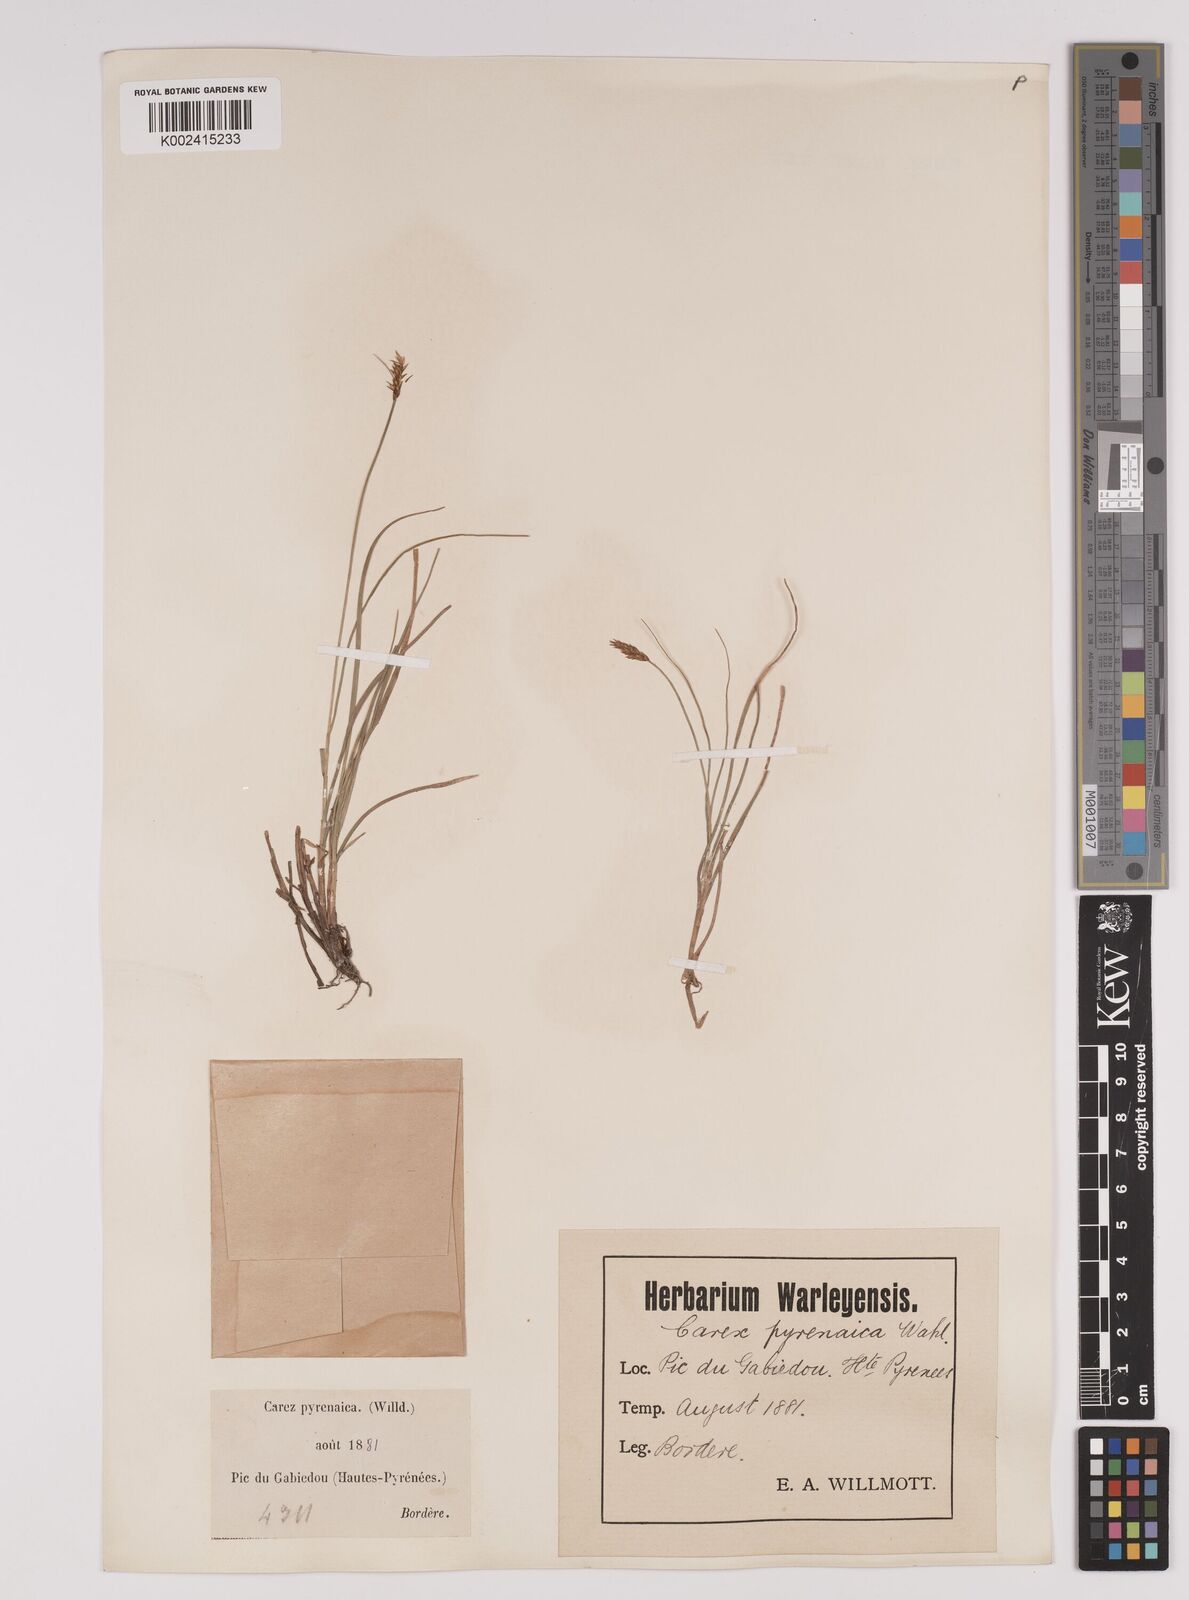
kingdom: Plantae
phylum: Tracheophyta
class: Liliopsida
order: Poales
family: Cyperaceae
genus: Carex
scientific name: Carex pyrenaica
